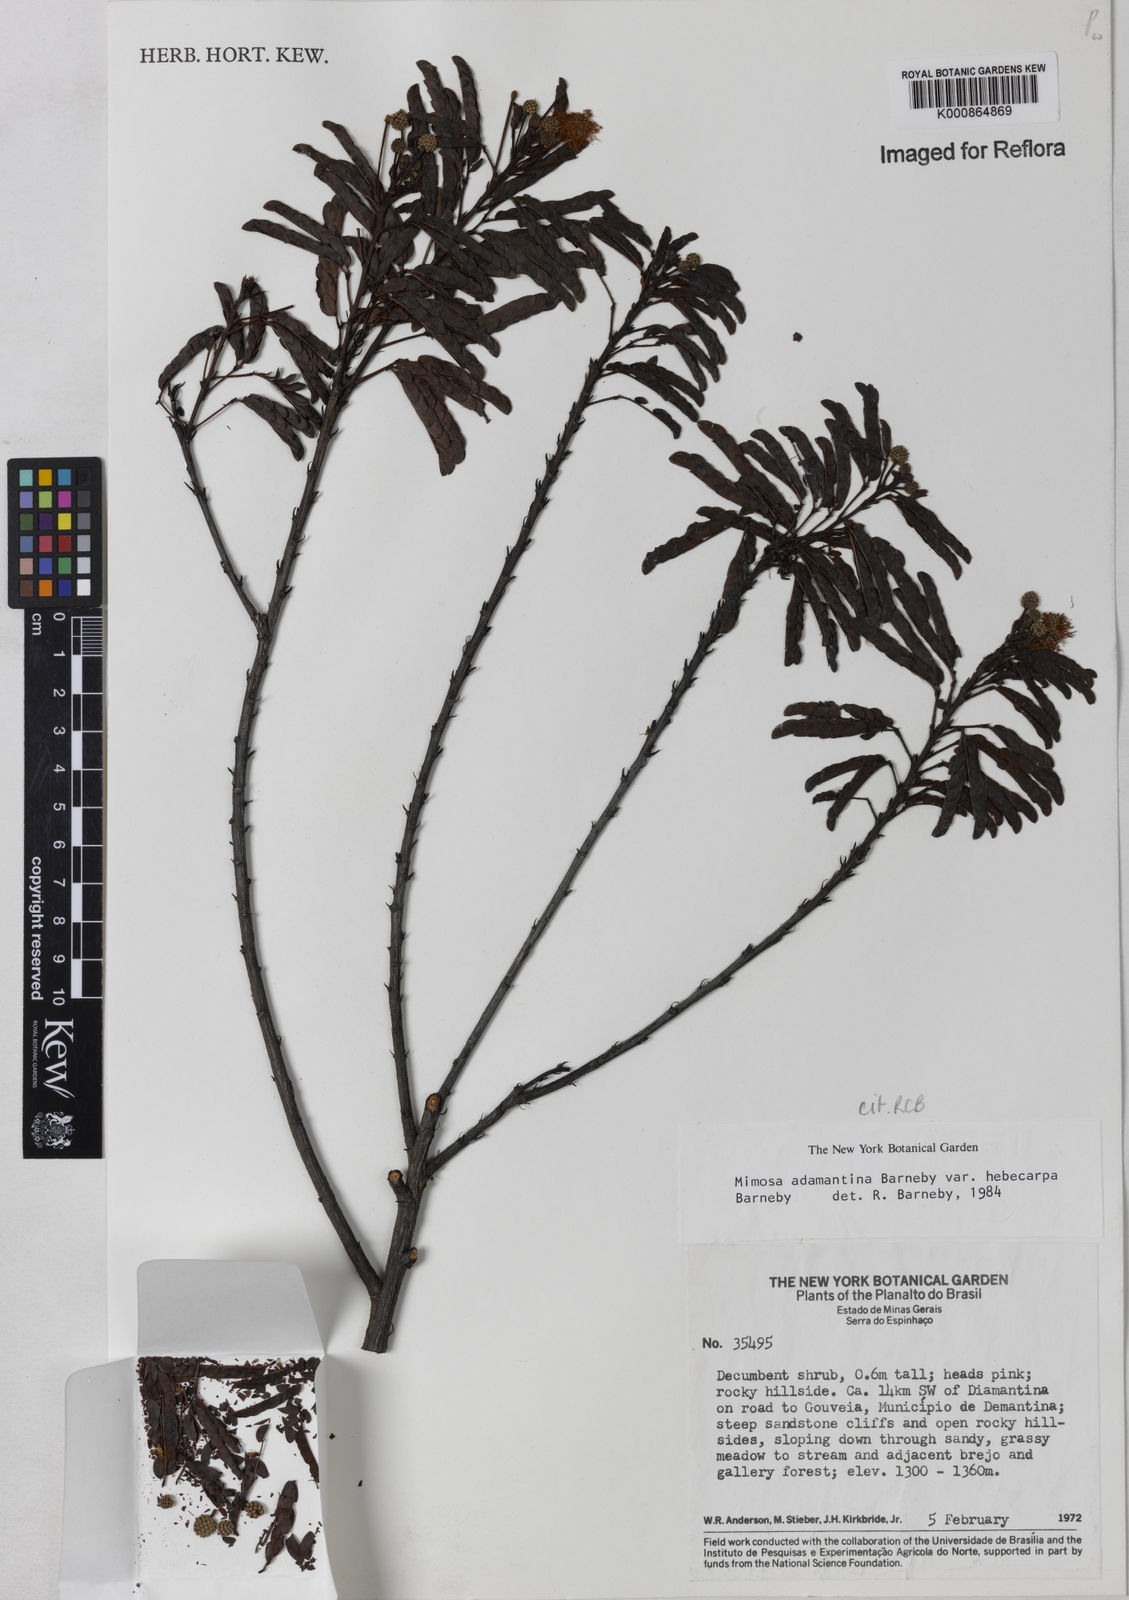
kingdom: Plantae
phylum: Tracheophyta
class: Magnoliopsida
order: Fabales
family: Fabaceae
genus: Mimosa
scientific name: Mimosa
